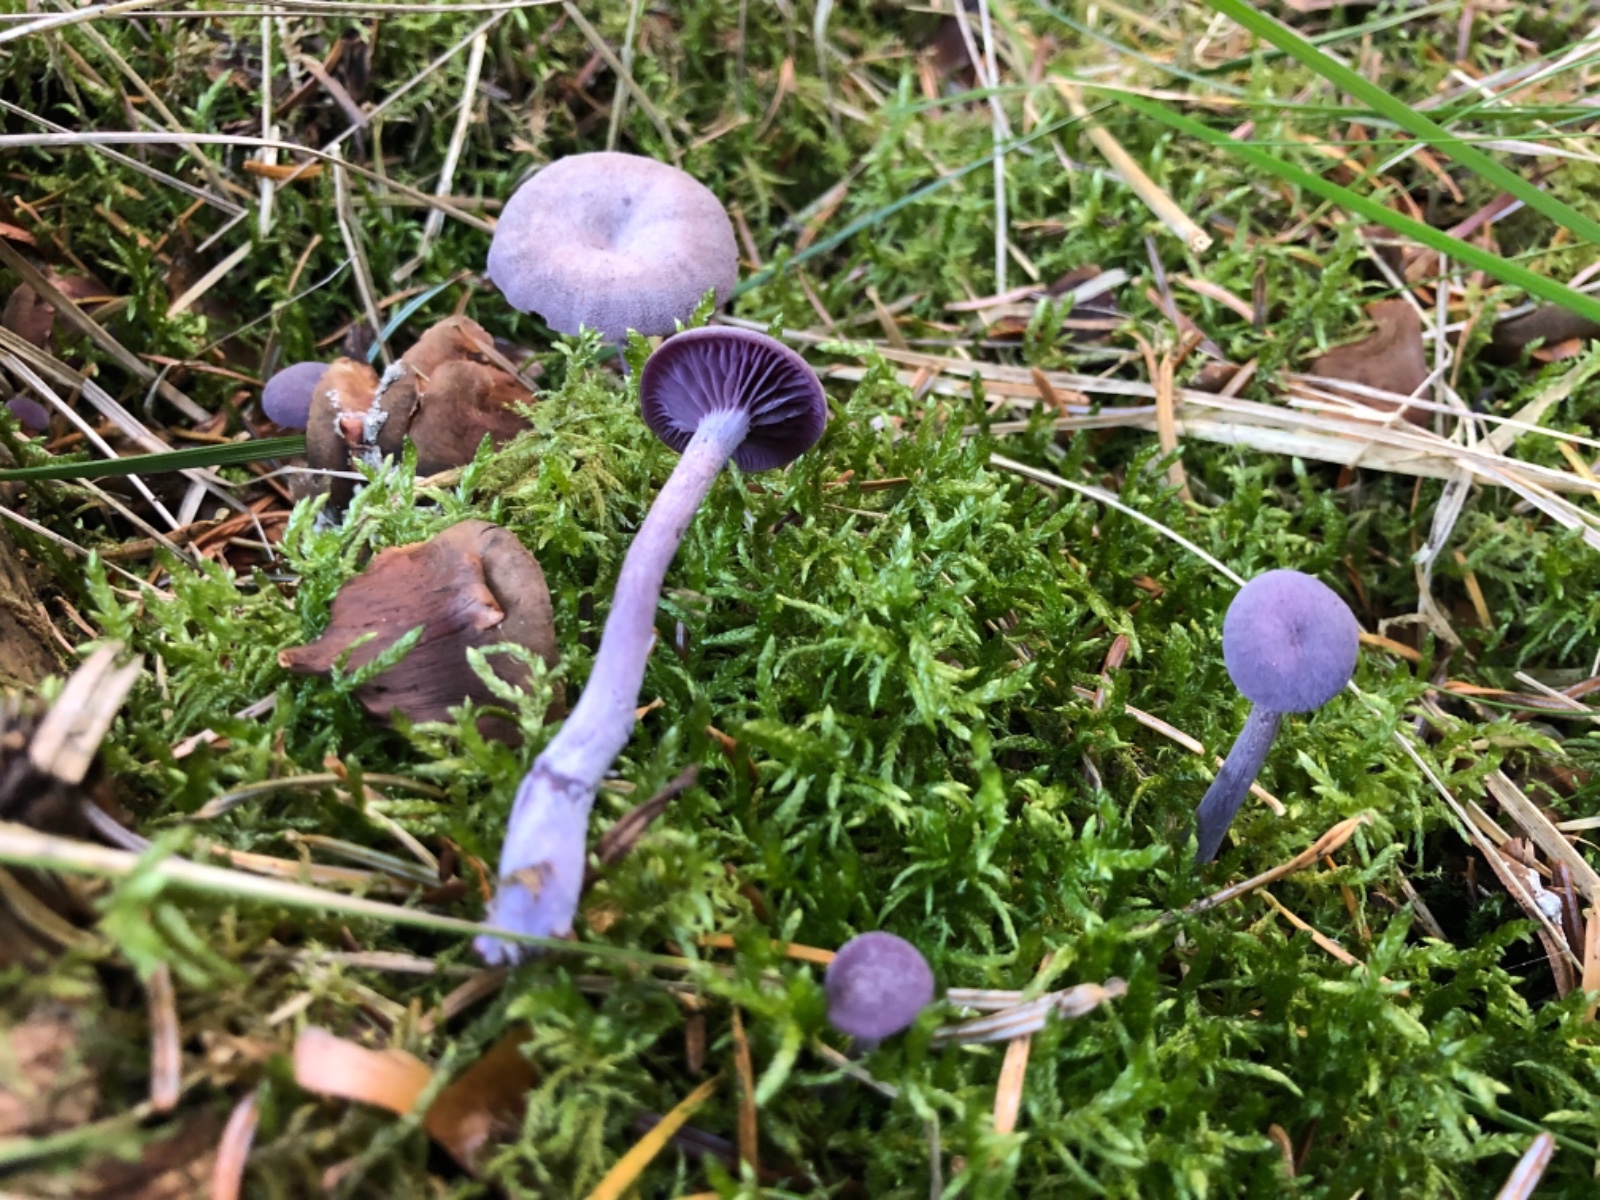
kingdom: Fungi
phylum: Basidiomycota
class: Agaricomycetes
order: Agaricales
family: Hydnangiaceae
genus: Laccaria
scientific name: Laccaria amethystina
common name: violet ametysthat
